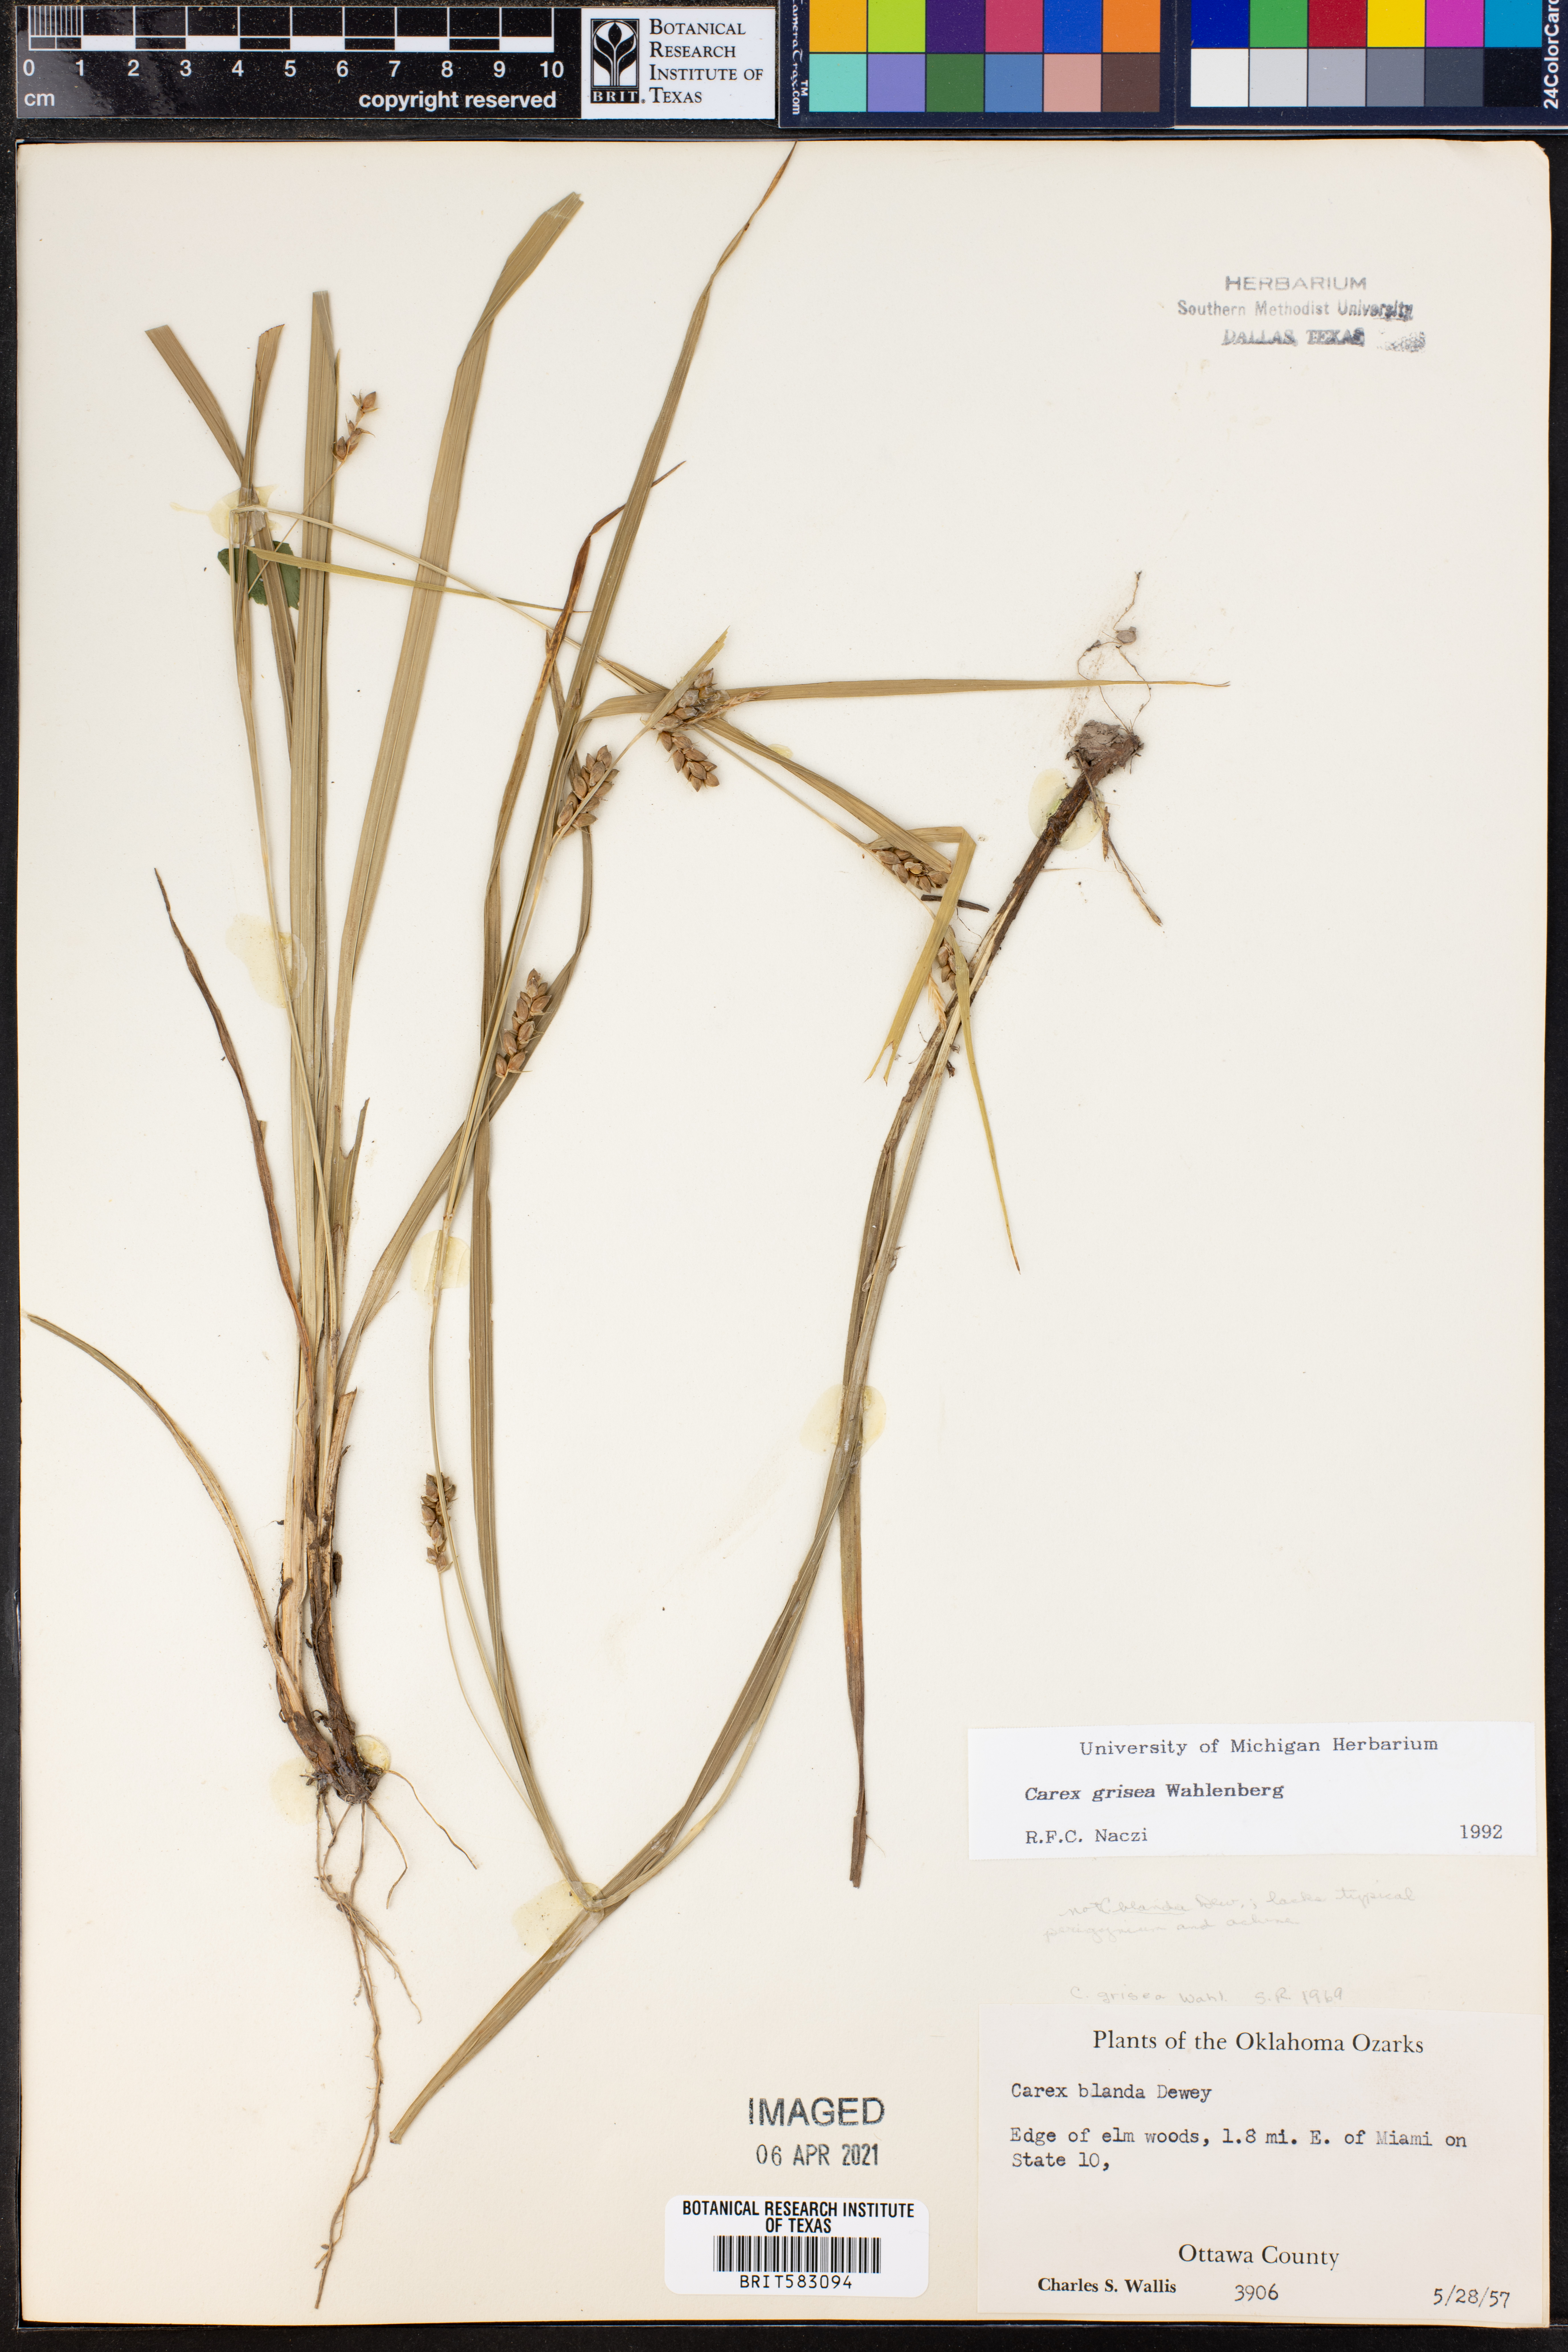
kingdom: Plantae
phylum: Tracheophyta
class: Liliopsida
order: Poales
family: Cyperaceae
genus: Carex
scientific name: Carex grisea
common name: Eastern narrow-leaved sedge
